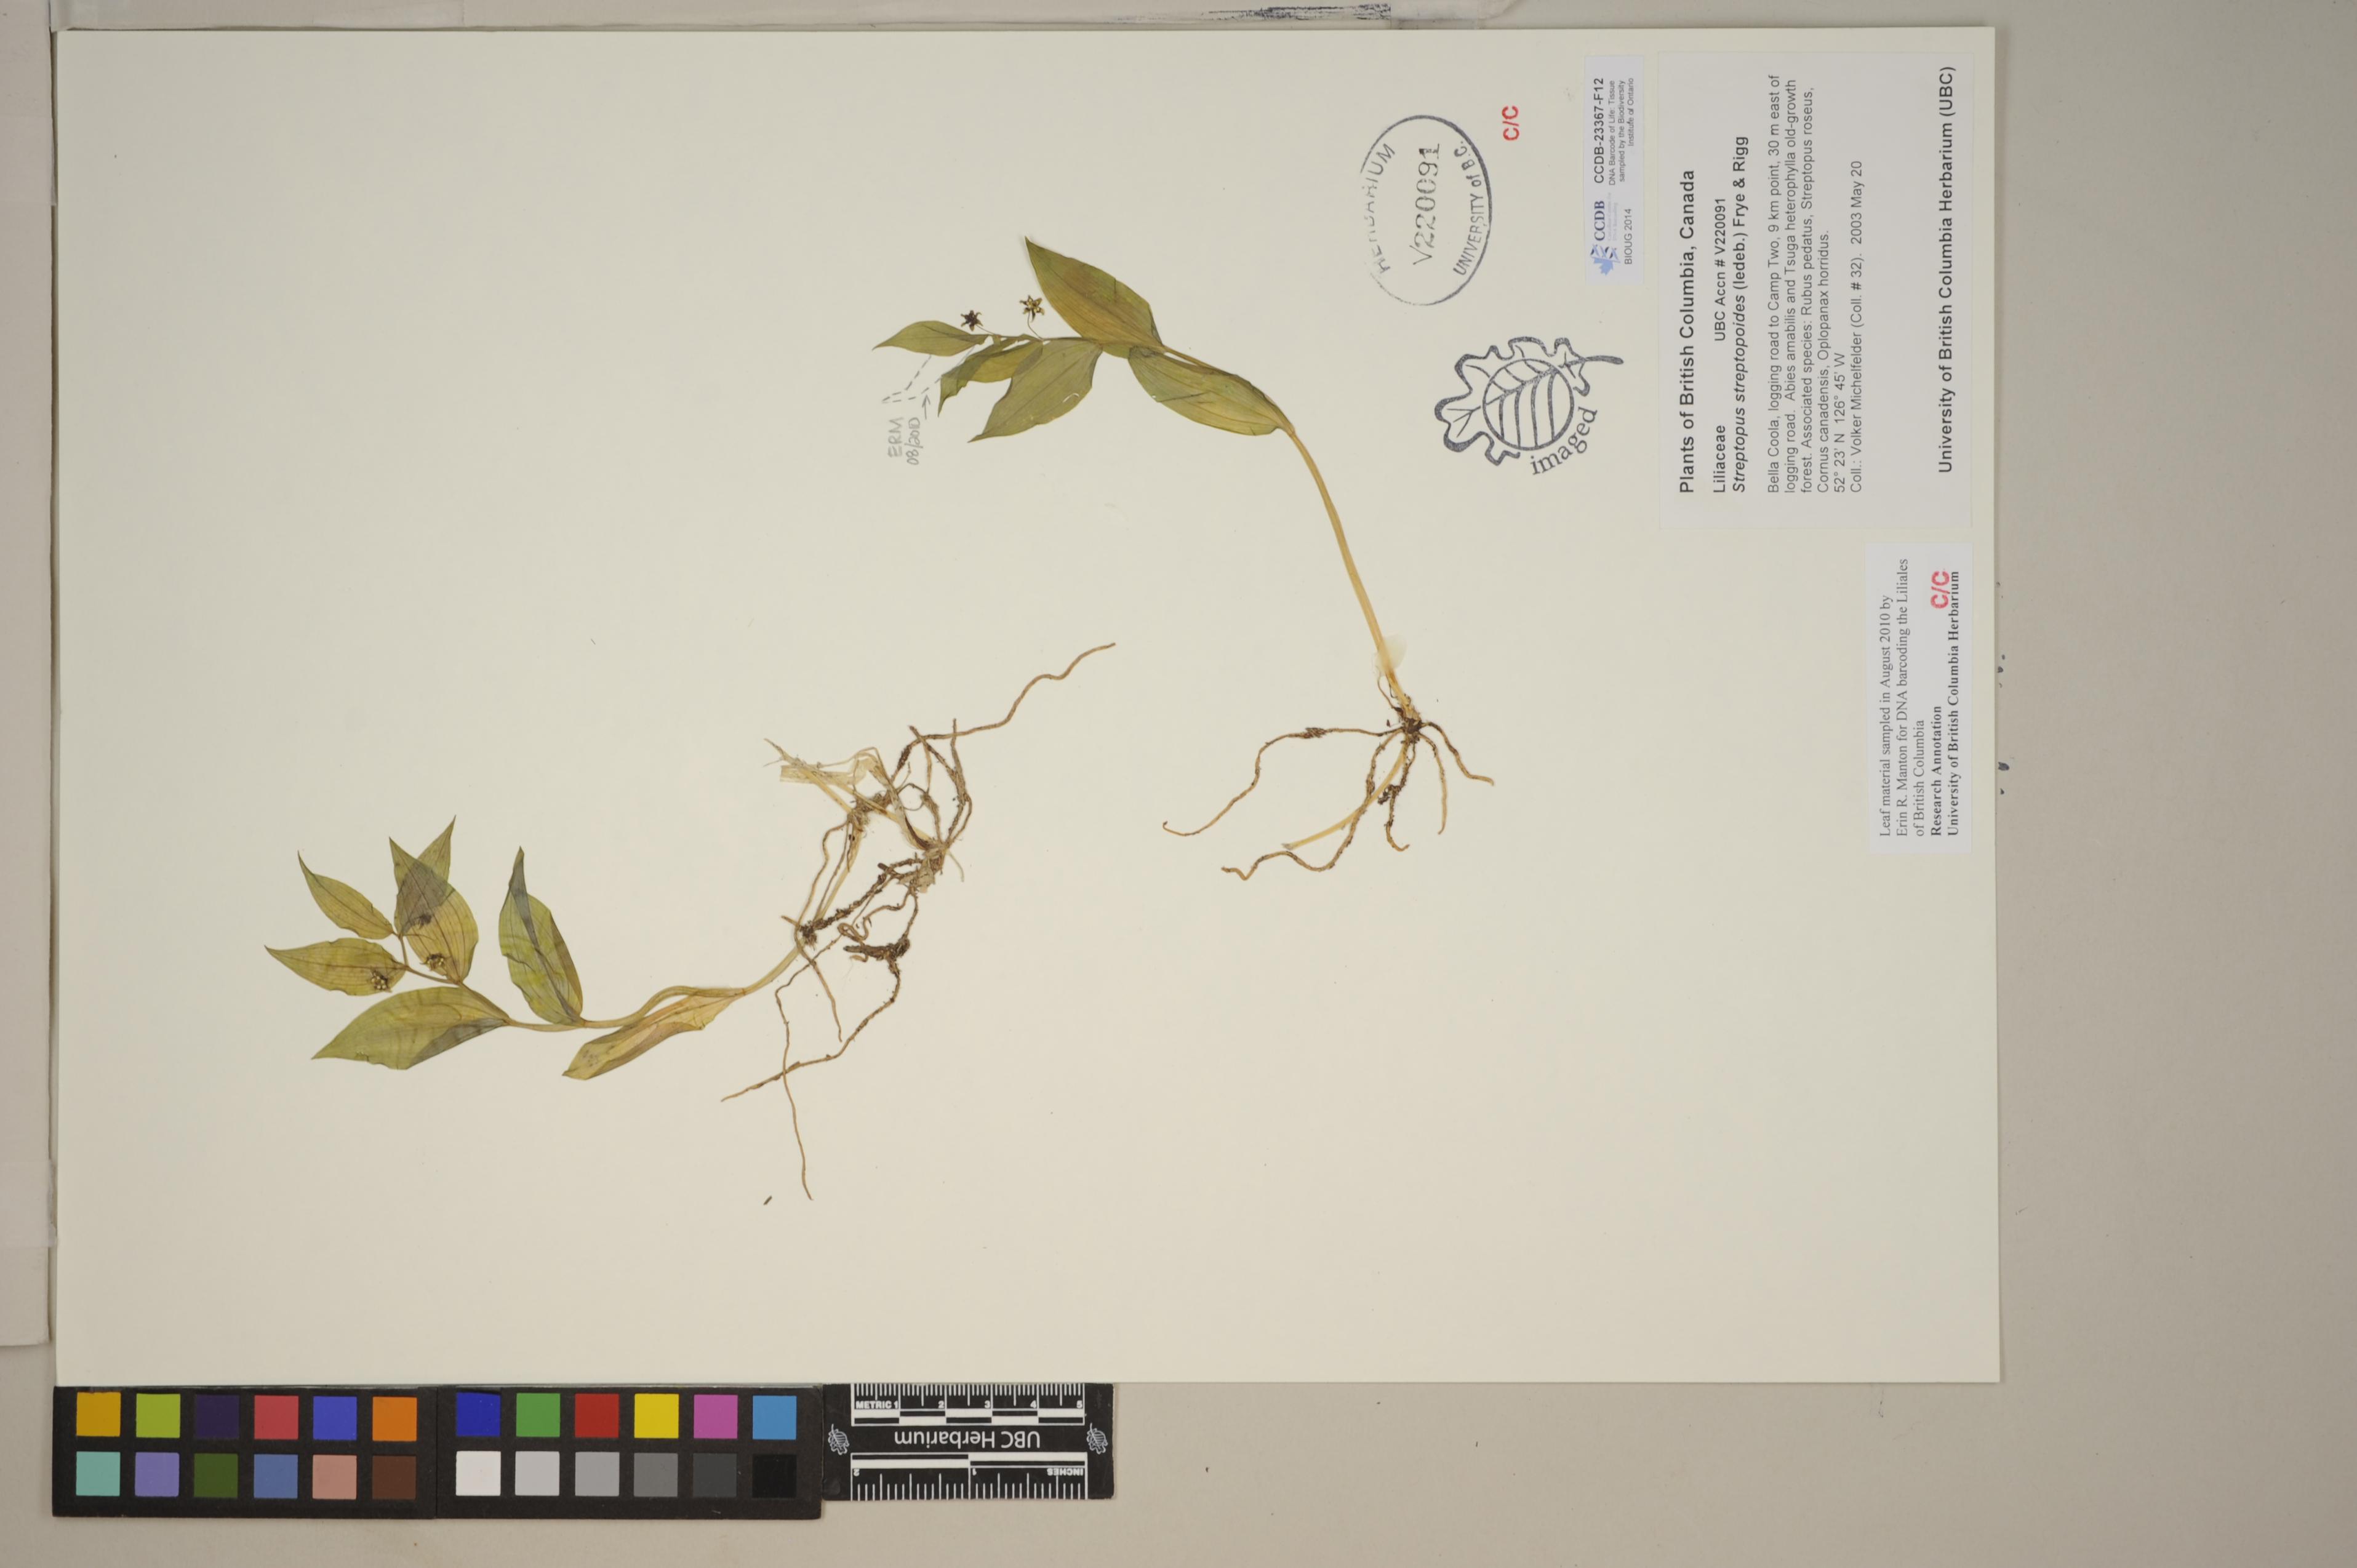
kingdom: Plantae
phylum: Tracheophyta
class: Liliopsida
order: Liliales
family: Liliaceae
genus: Streptopus
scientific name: Streptopus streptopoides
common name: Small twisted-stalk
